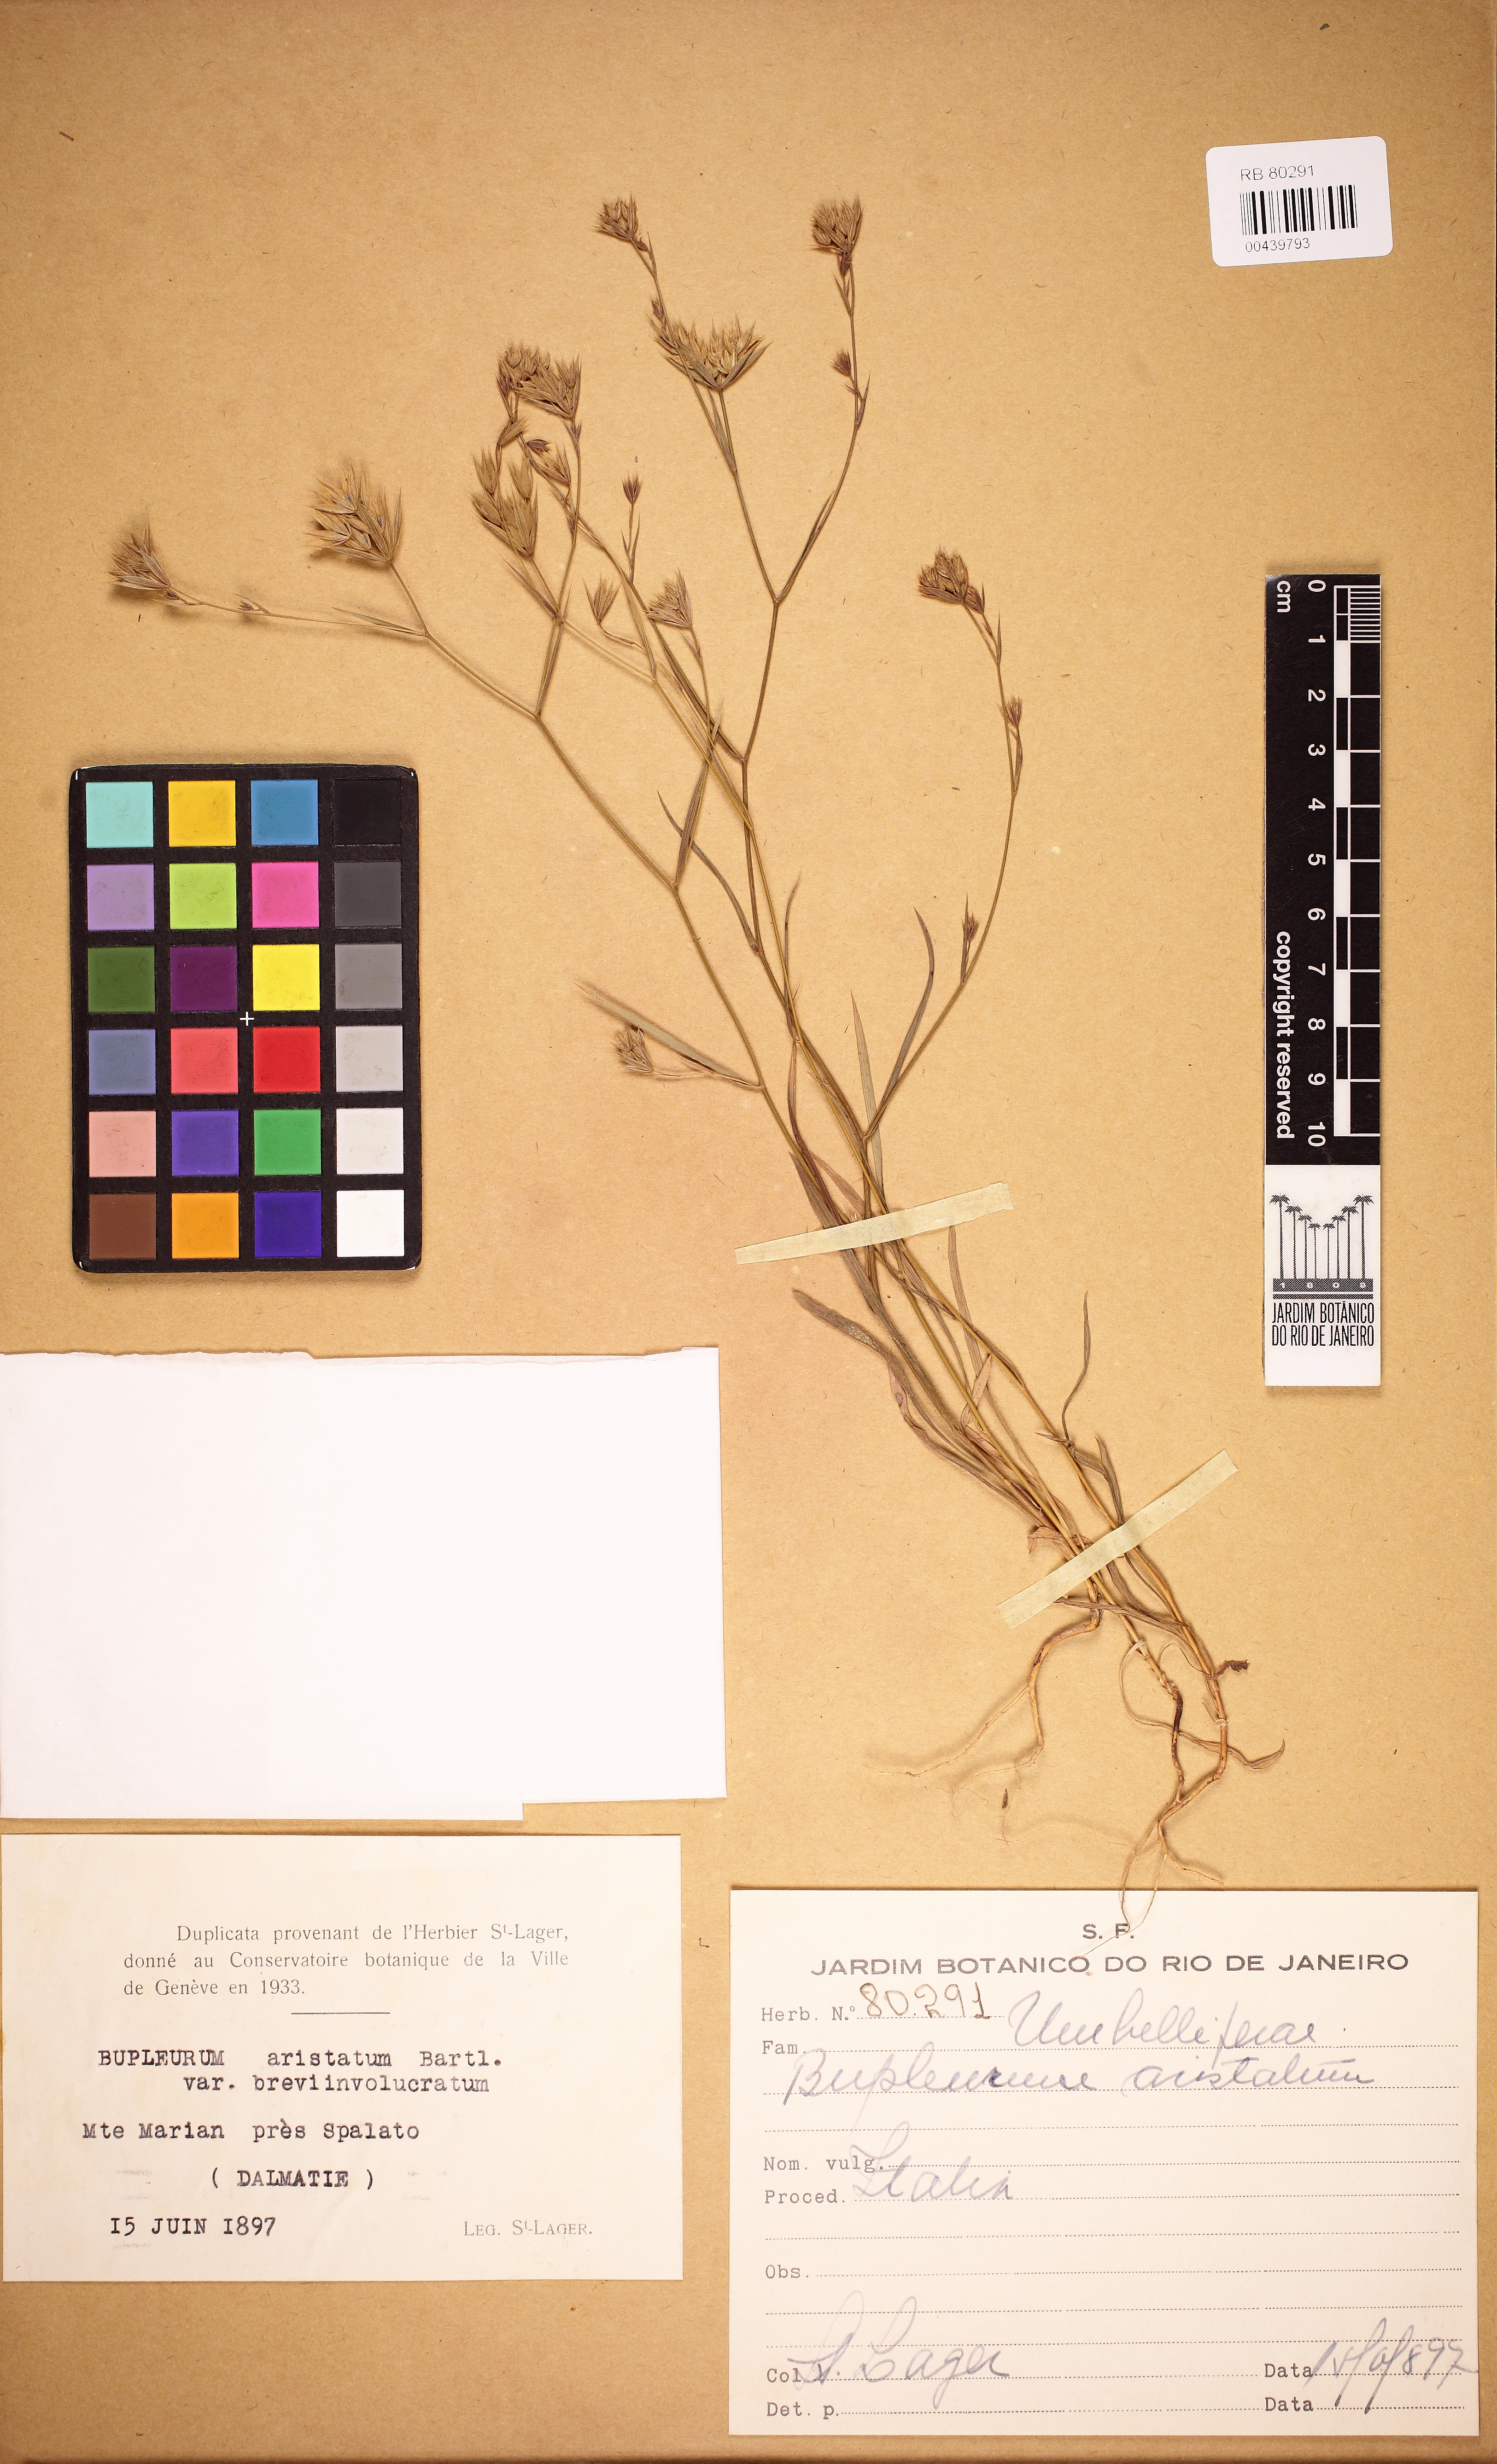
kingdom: Plantae
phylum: Tracheophyta
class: Magnoliopsida
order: Apiales
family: Apiaceae
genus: Bupleurum
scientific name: Bupleurum aristatum
